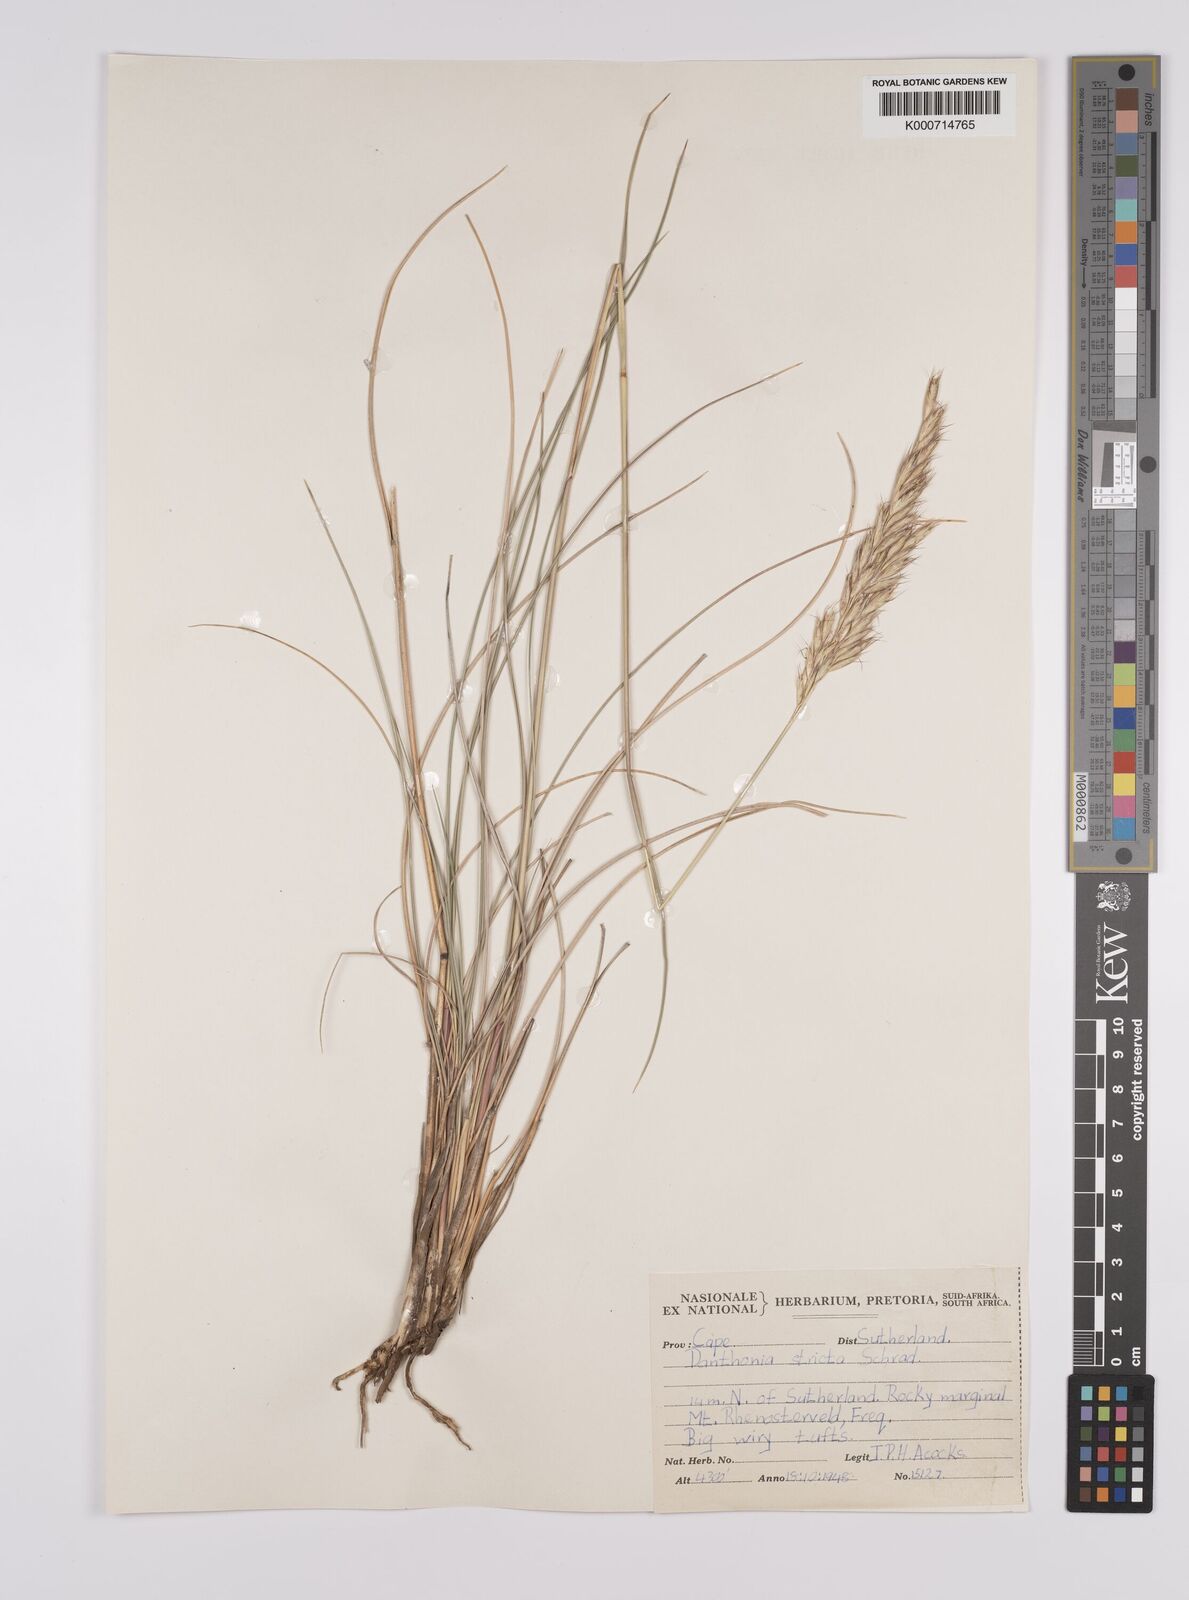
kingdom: Plantae
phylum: Tracheophyta
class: Liliopsida
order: Poales
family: Poaceae
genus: Rytidosperma
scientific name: Rytidosperma
